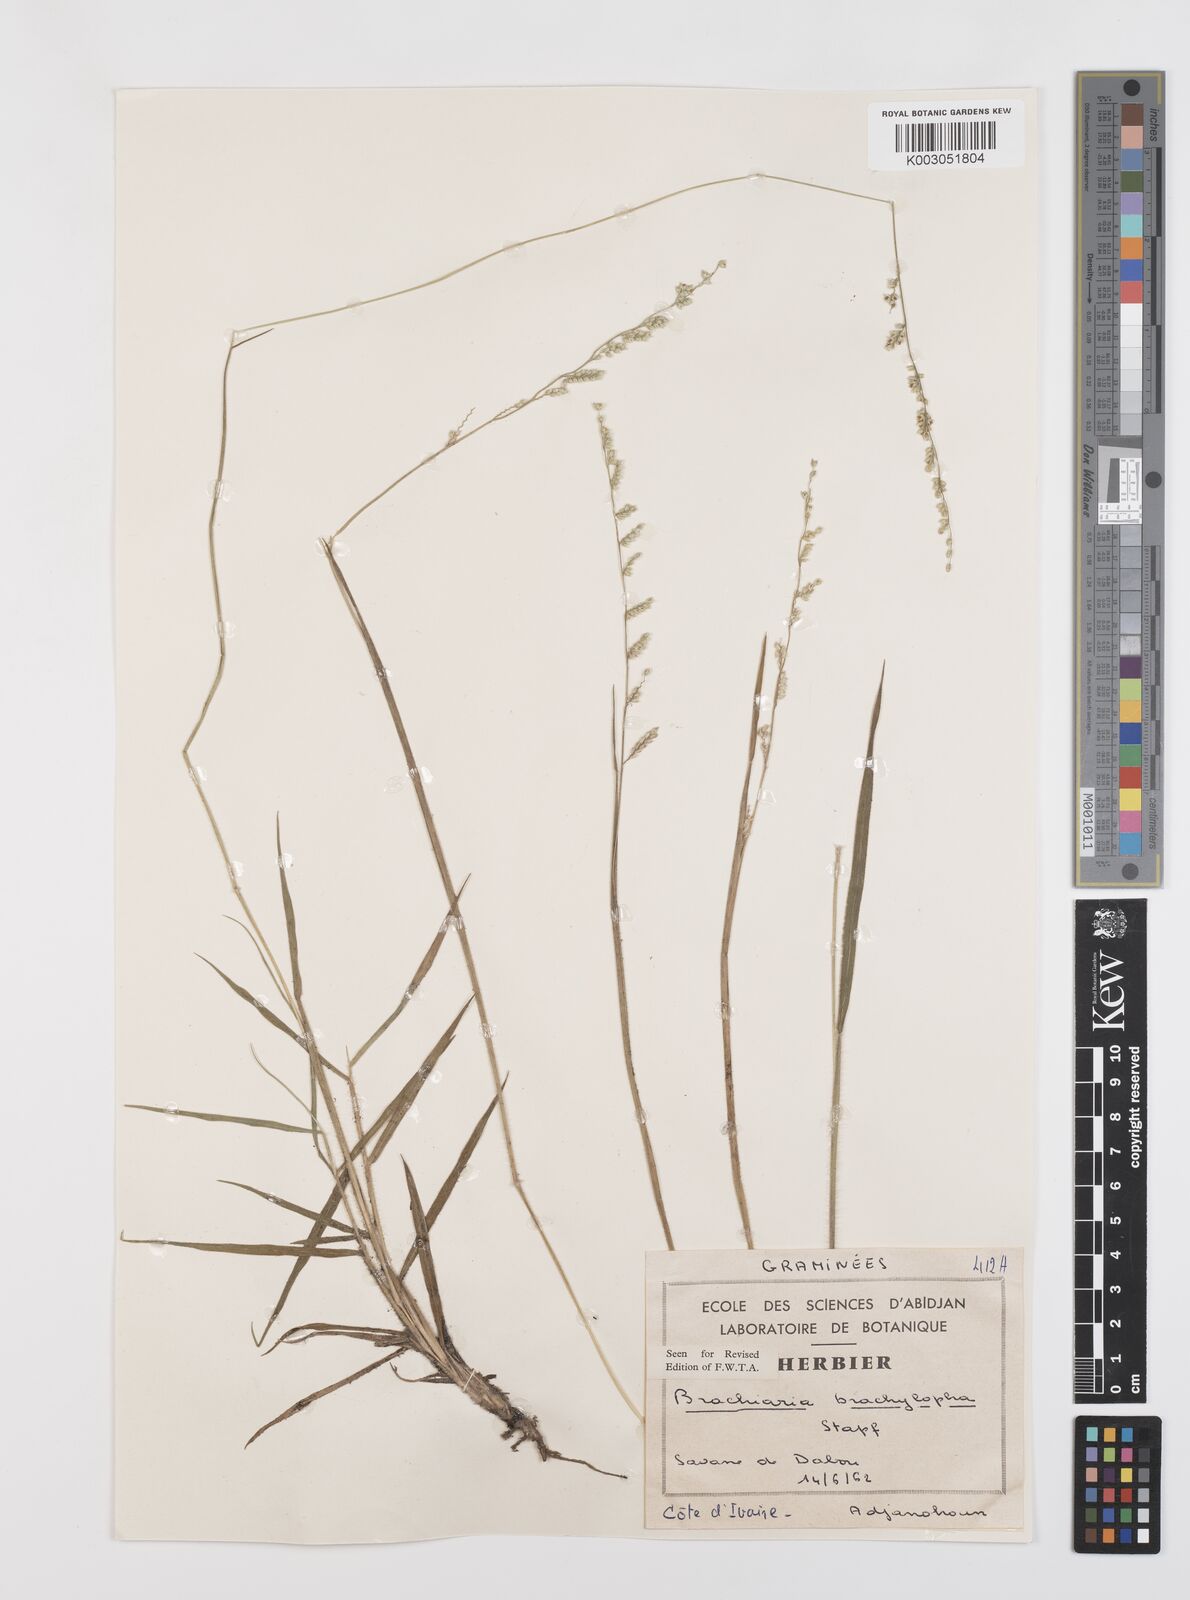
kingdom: Plantae
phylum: Tracheophyta
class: Liliopsida
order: Poales
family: Poaceae
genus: Urochloa
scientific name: Urochloa serrata
